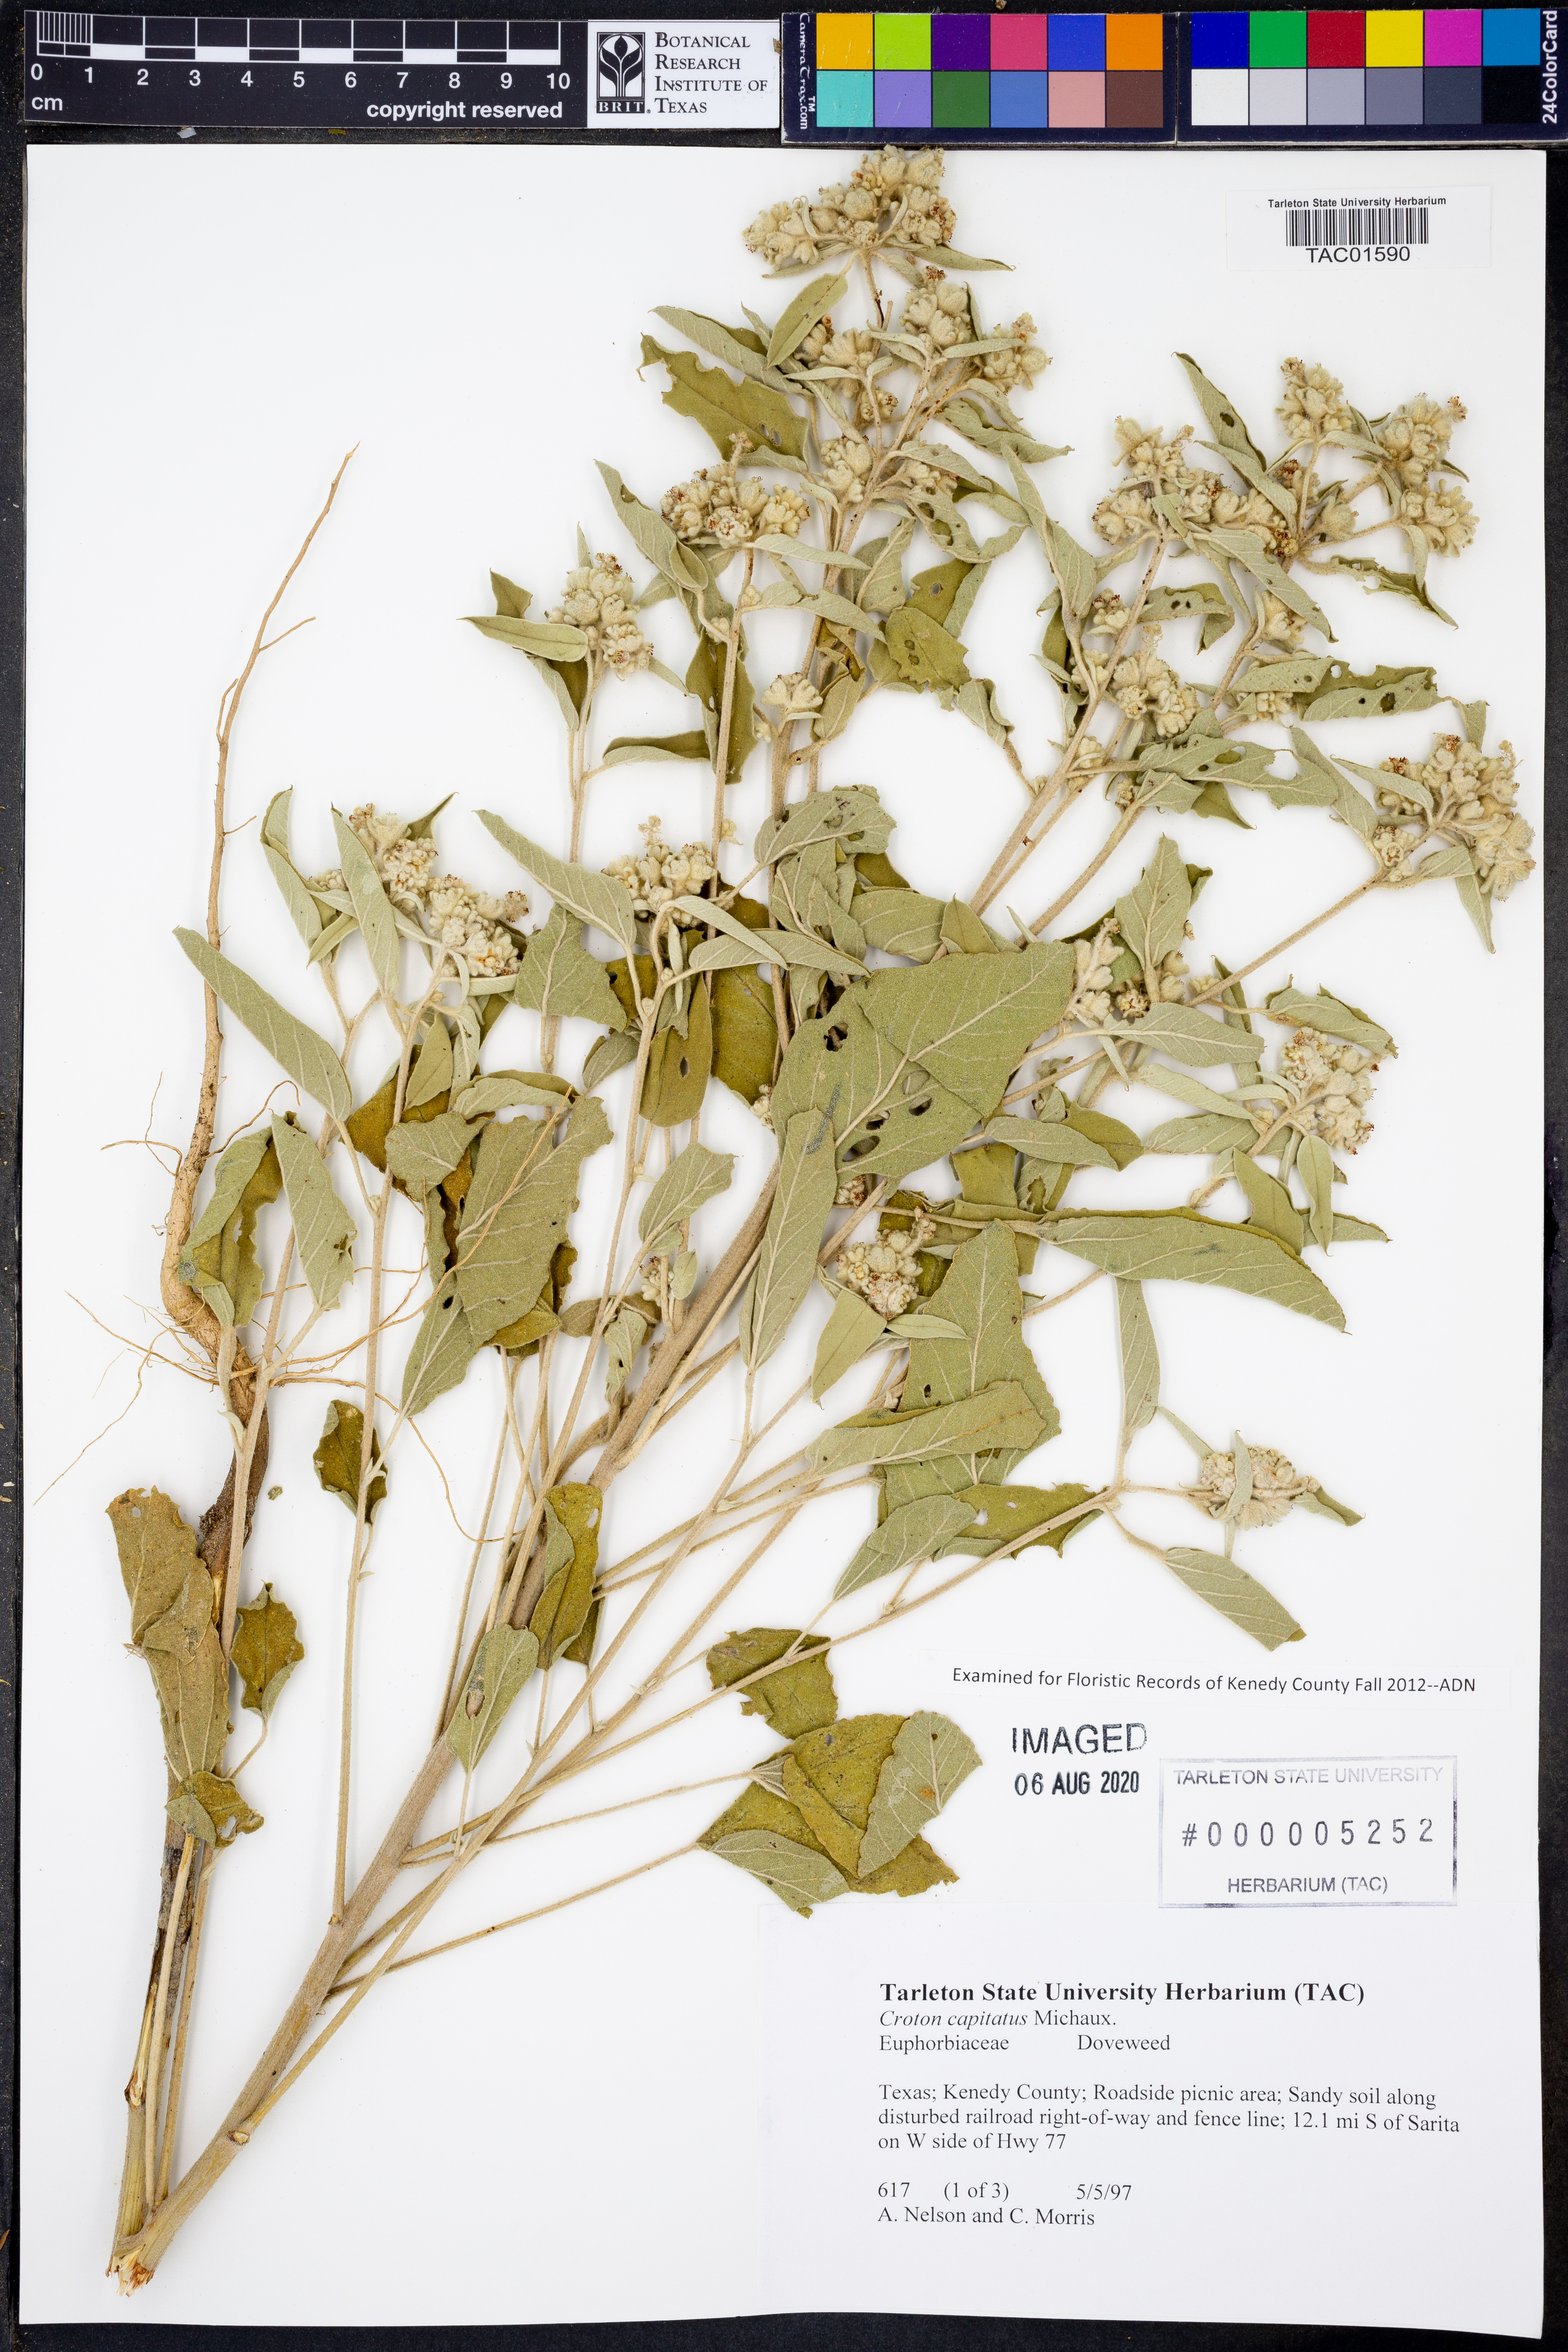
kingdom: Plantae
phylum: Tracheophyta
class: Magnoliopsida
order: Malpighiales
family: Euphorbiaceae
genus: Croton
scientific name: Croton capitatus
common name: Woolly croton
